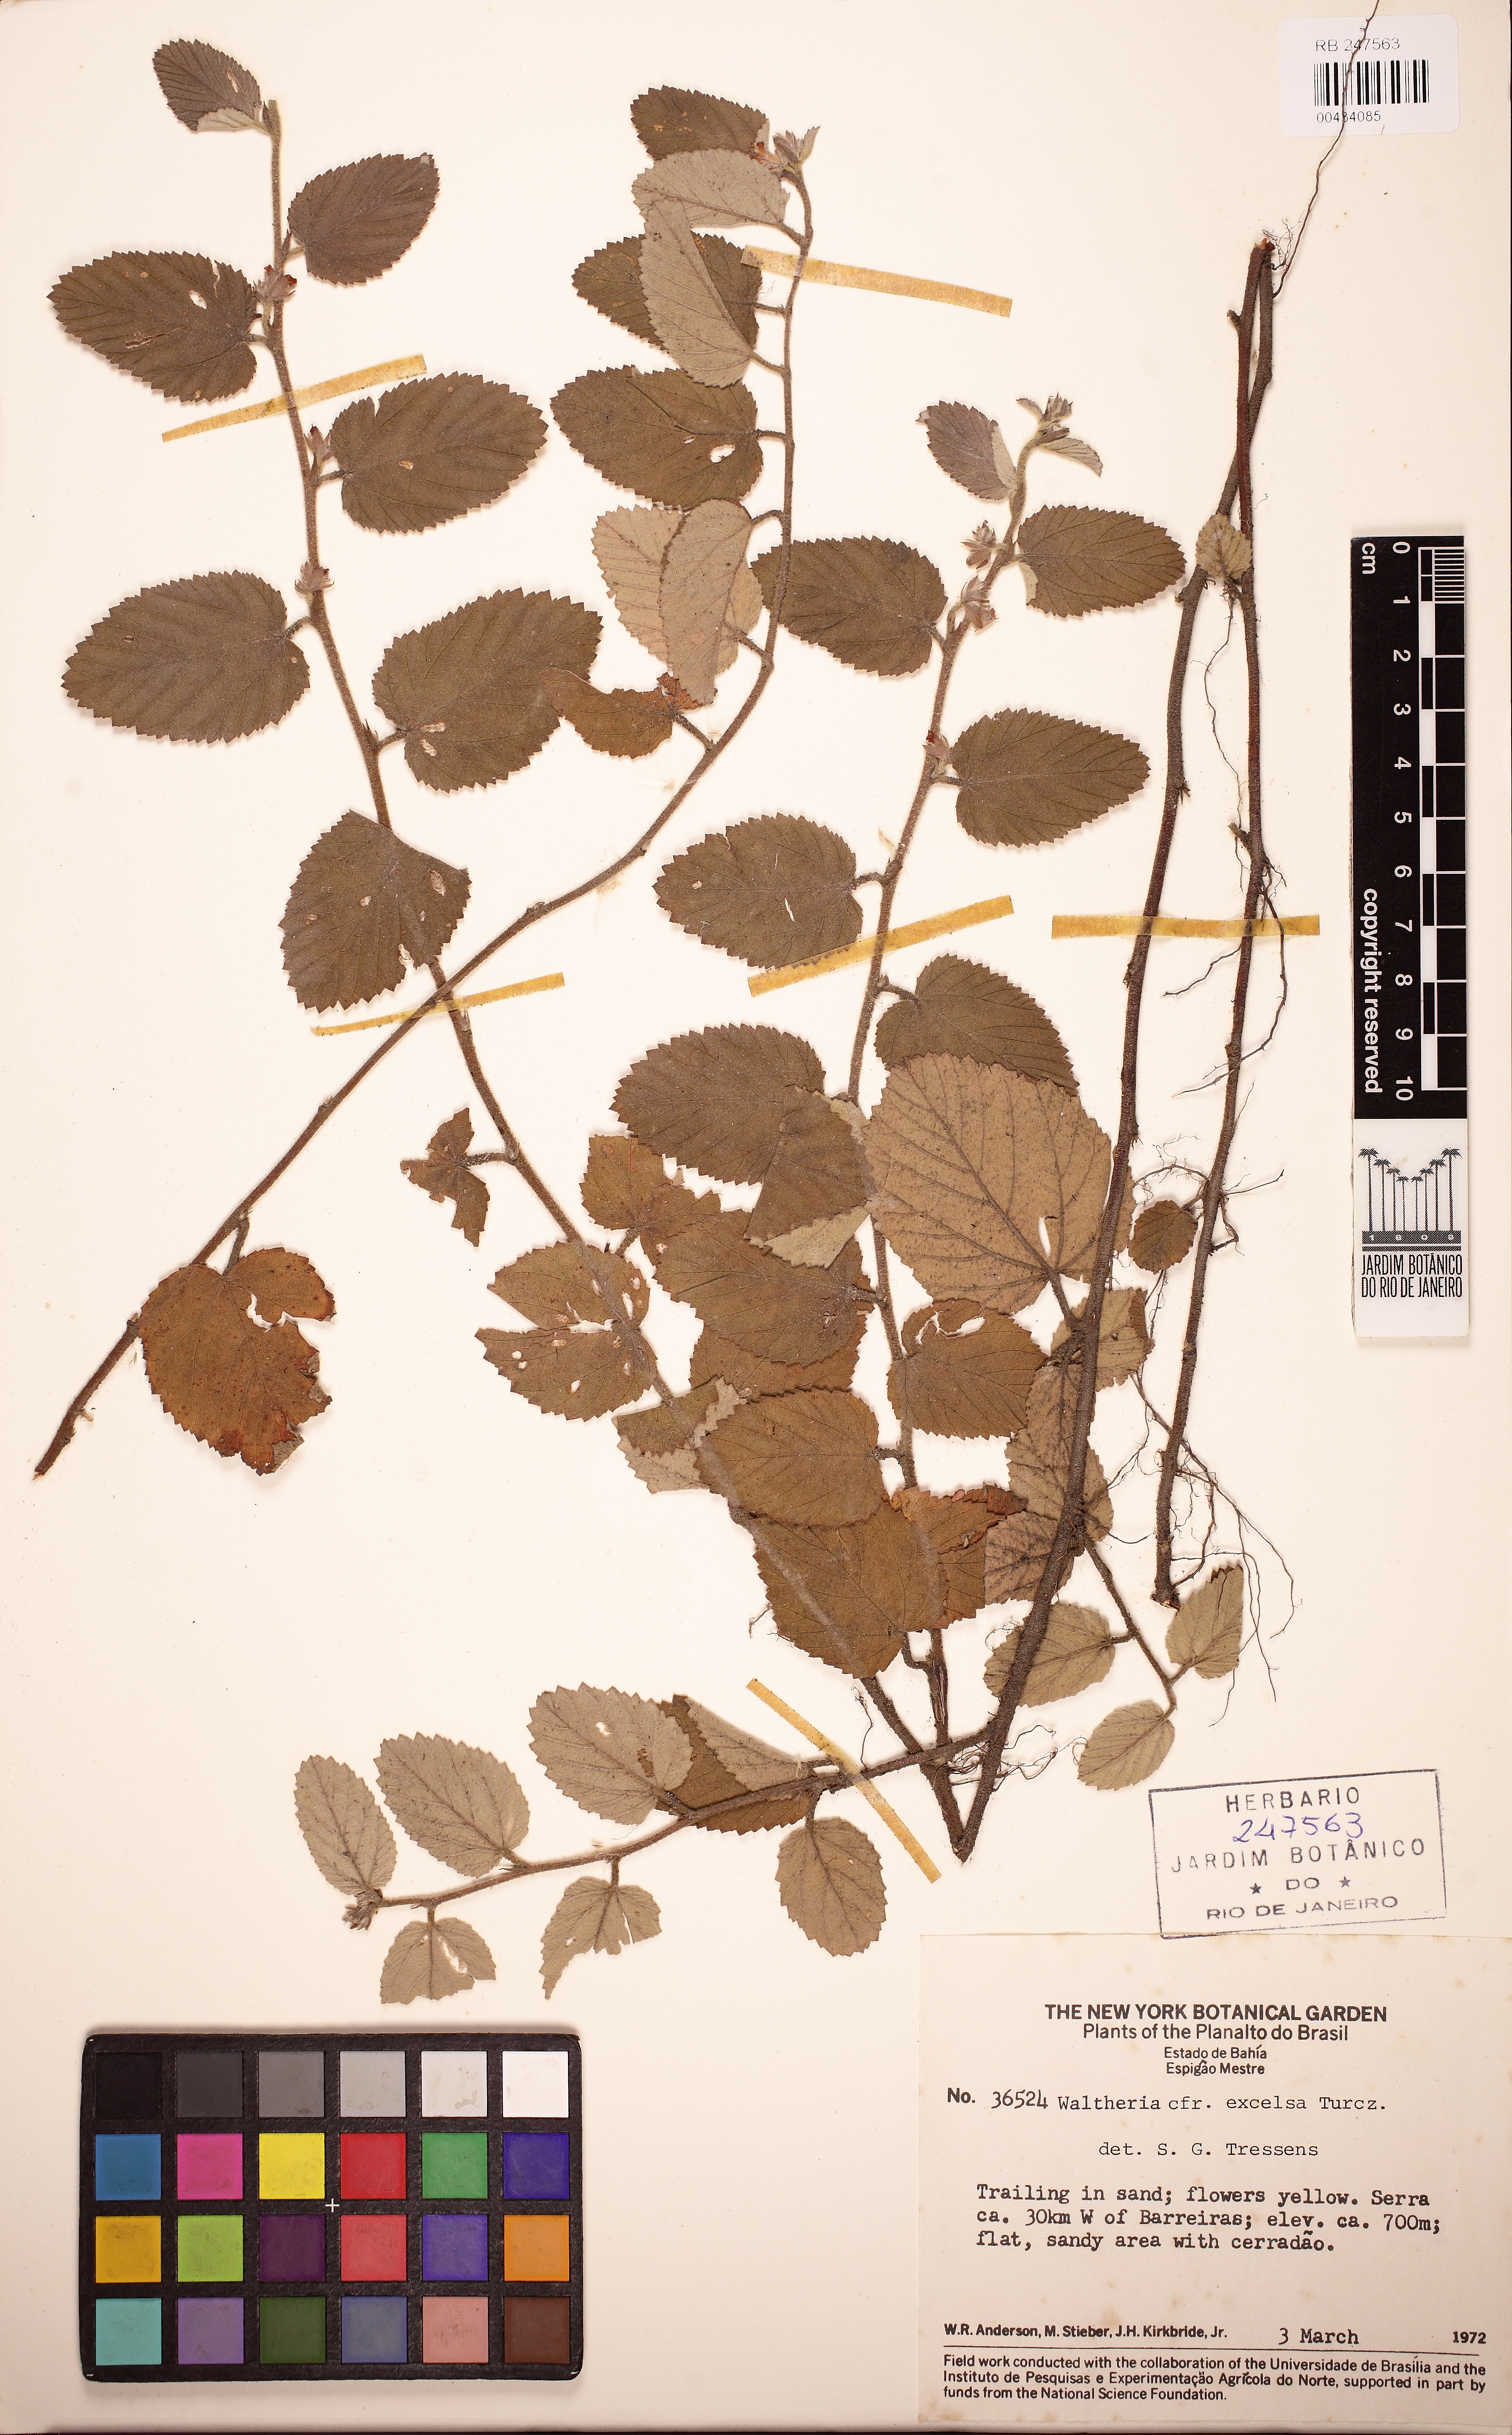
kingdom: Plantae
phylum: Tracheophyta
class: Magnoliopsida
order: Malvales
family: Malvaceae
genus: Waltheria
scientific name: Waltheria excelsa
